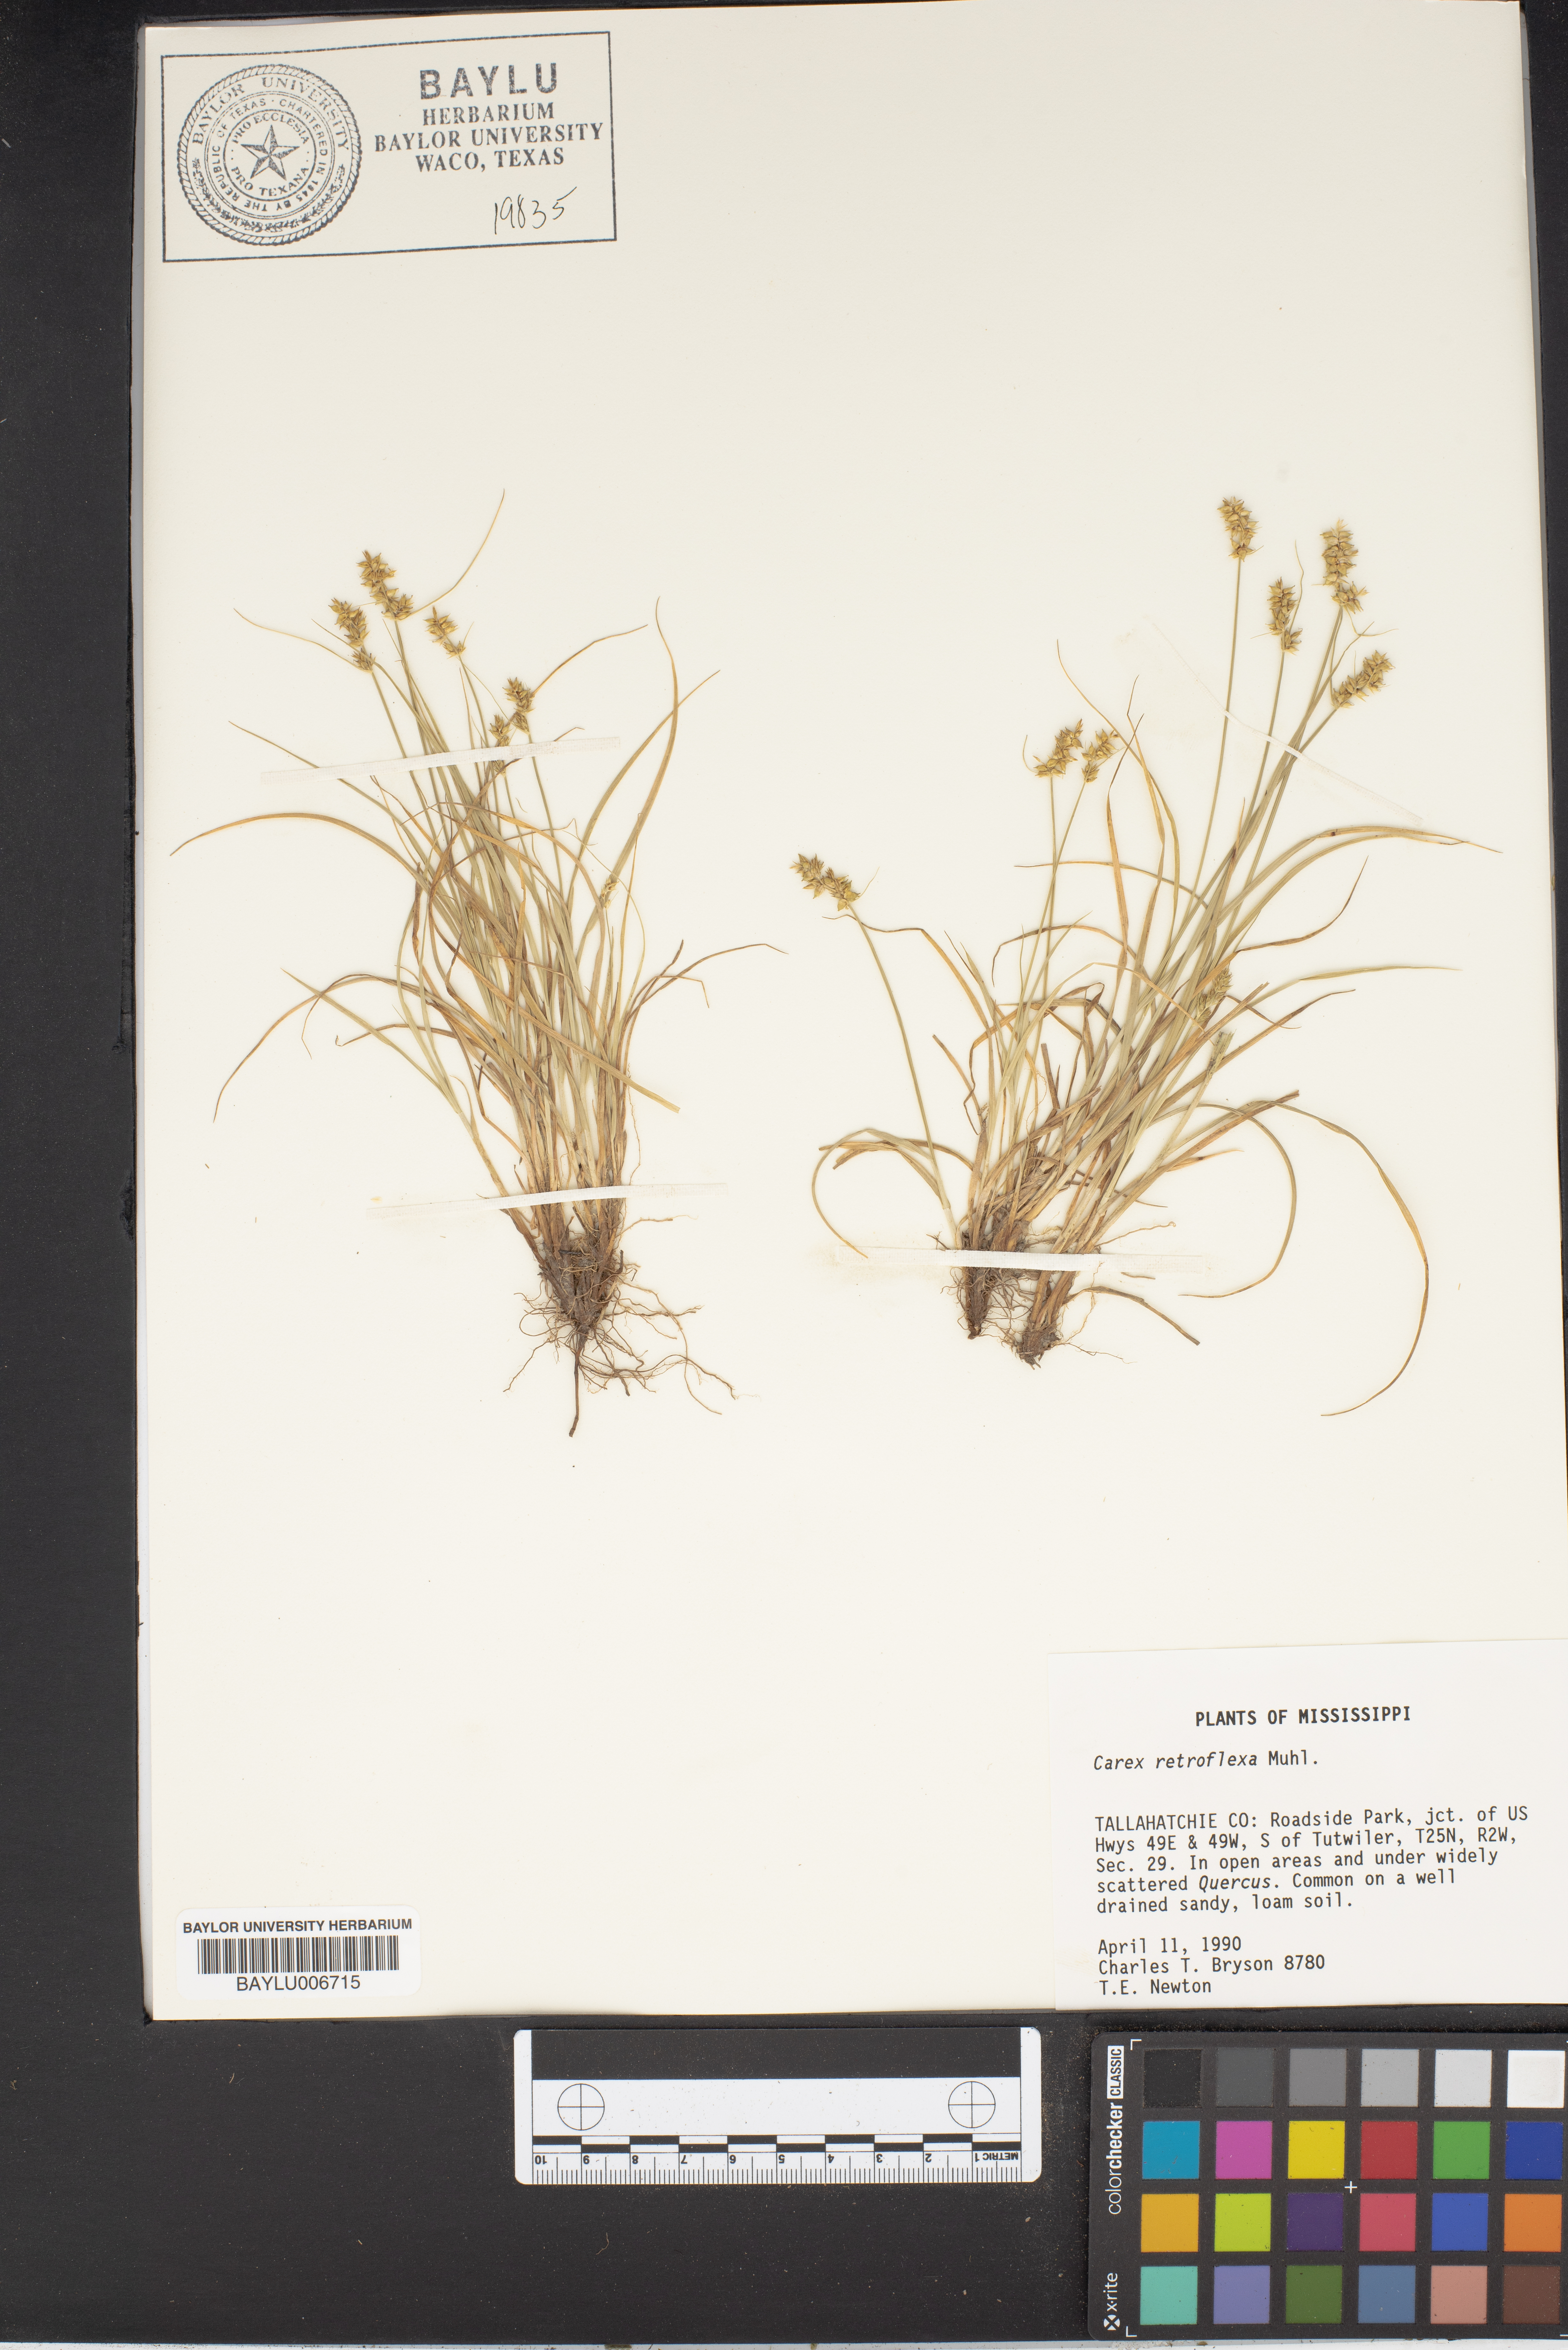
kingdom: Plantae
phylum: Tracheophyta
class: Liliopsida
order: Poales
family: Cyperaceae
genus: Carex
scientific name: Carex retroflexa
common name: Reflexed sedge
